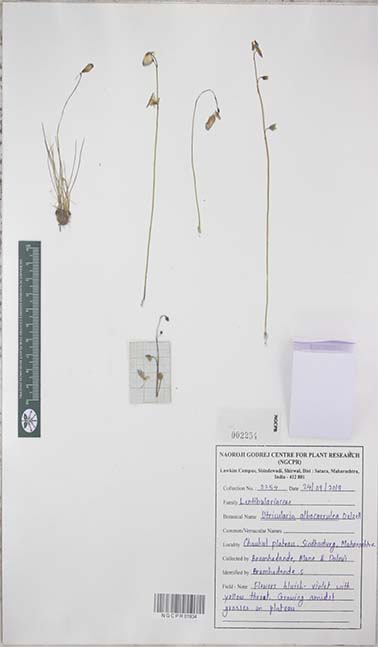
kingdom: Plantae
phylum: Tracheophyta
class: Magnoliopsida
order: Lamiales
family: Lentibulariaceae
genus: Utricularia
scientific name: Utricularia albocaerulea
